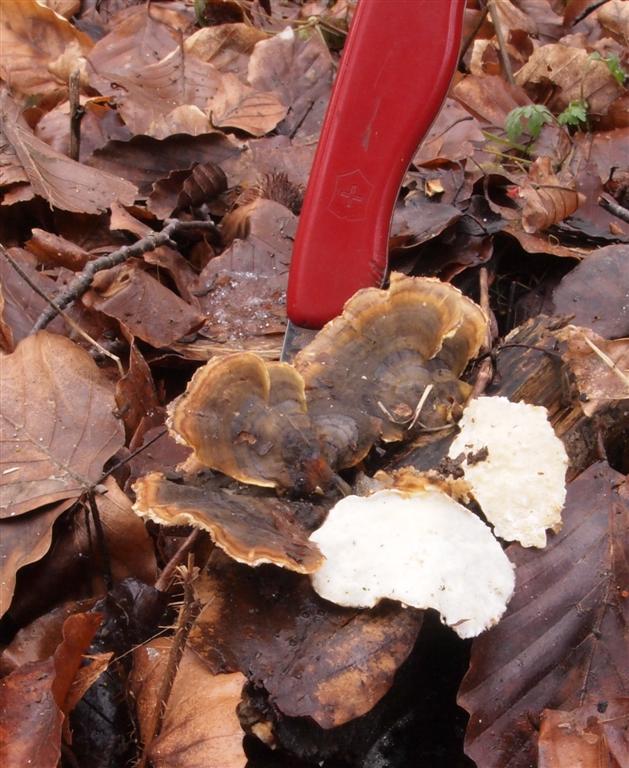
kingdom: Fungi
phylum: Basidiomycota
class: Agaricomycetes
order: Polyporales
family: Polyporaceae
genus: Trametes
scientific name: Trametes versicolor
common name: broget læderporesvamp
